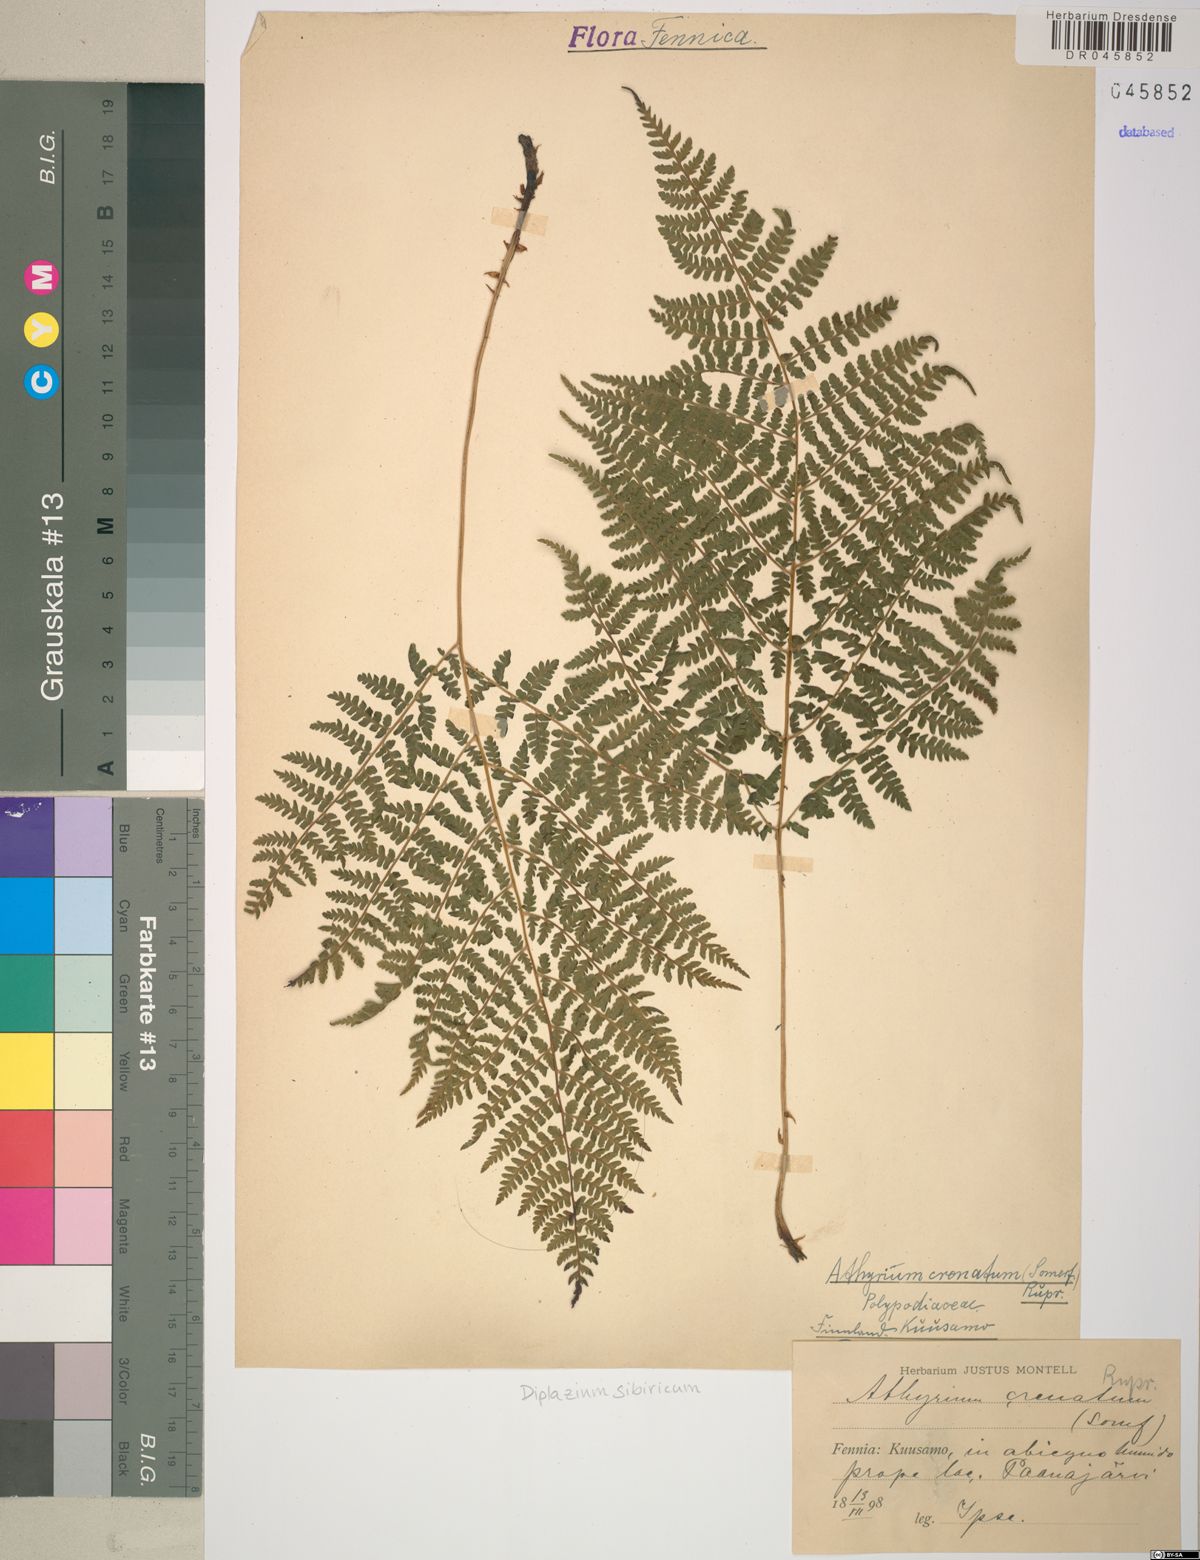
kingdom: Plantae
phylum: Tracheophyta
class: Polypodiopsida
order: Polypodiales
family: Athyriaceae
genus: Diplazium
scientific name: Diplazium sibiricum
